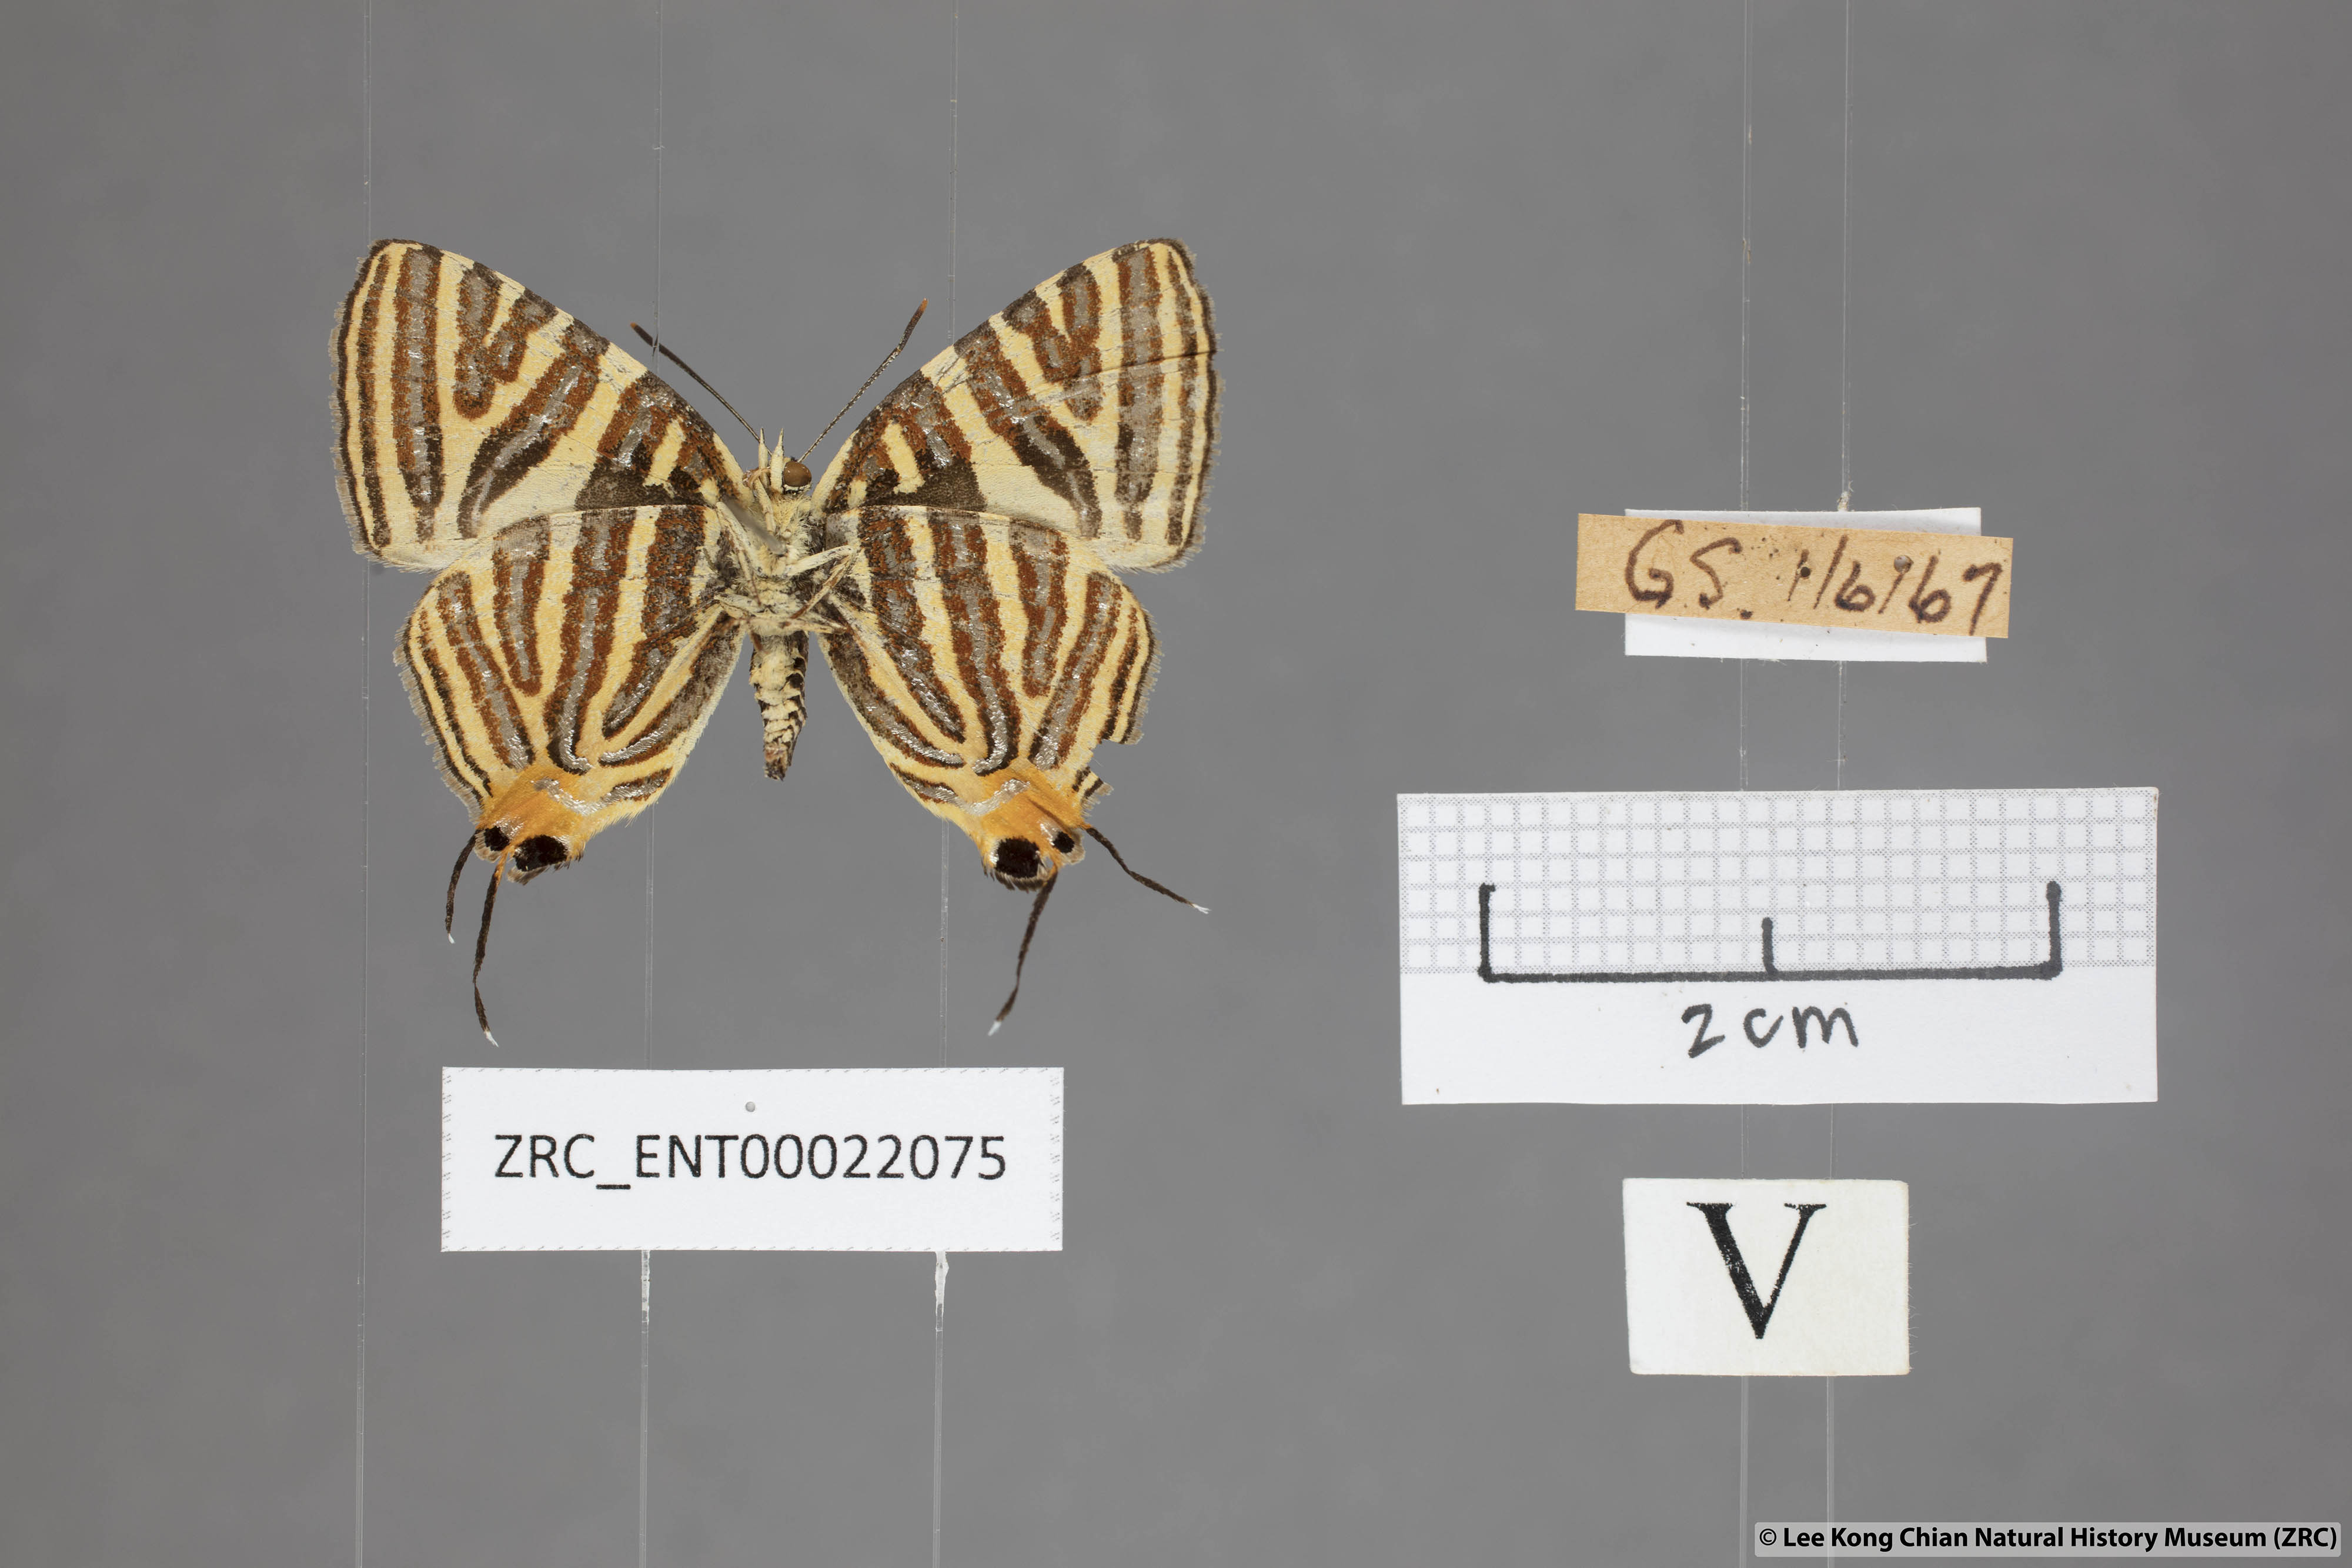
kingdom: Animalia
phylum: Arthropoda
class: Insecta
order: Lepidoptera
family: Lycaenidae
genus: Spindasis
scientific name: Spindasis lohita
